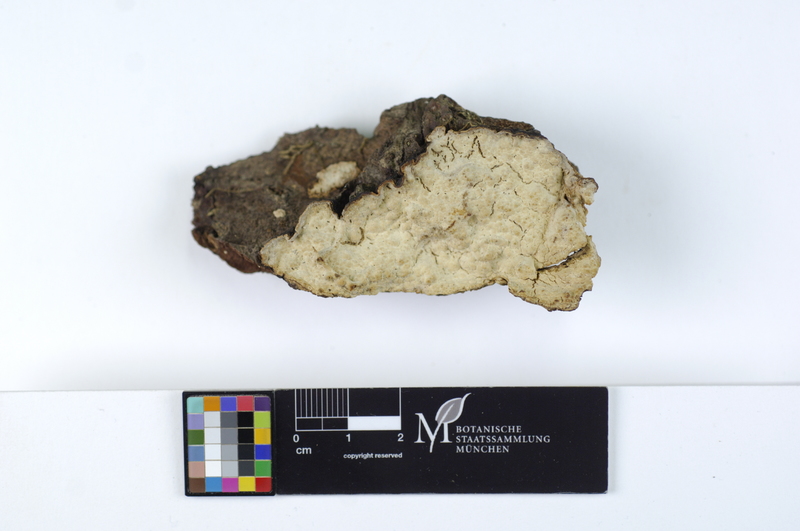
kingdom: Plantae
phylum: Tracheophyta
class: Pinopsida
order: Pinales
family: Pinaceae
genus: Picea
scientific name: Picea abies
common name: Norway spruce
